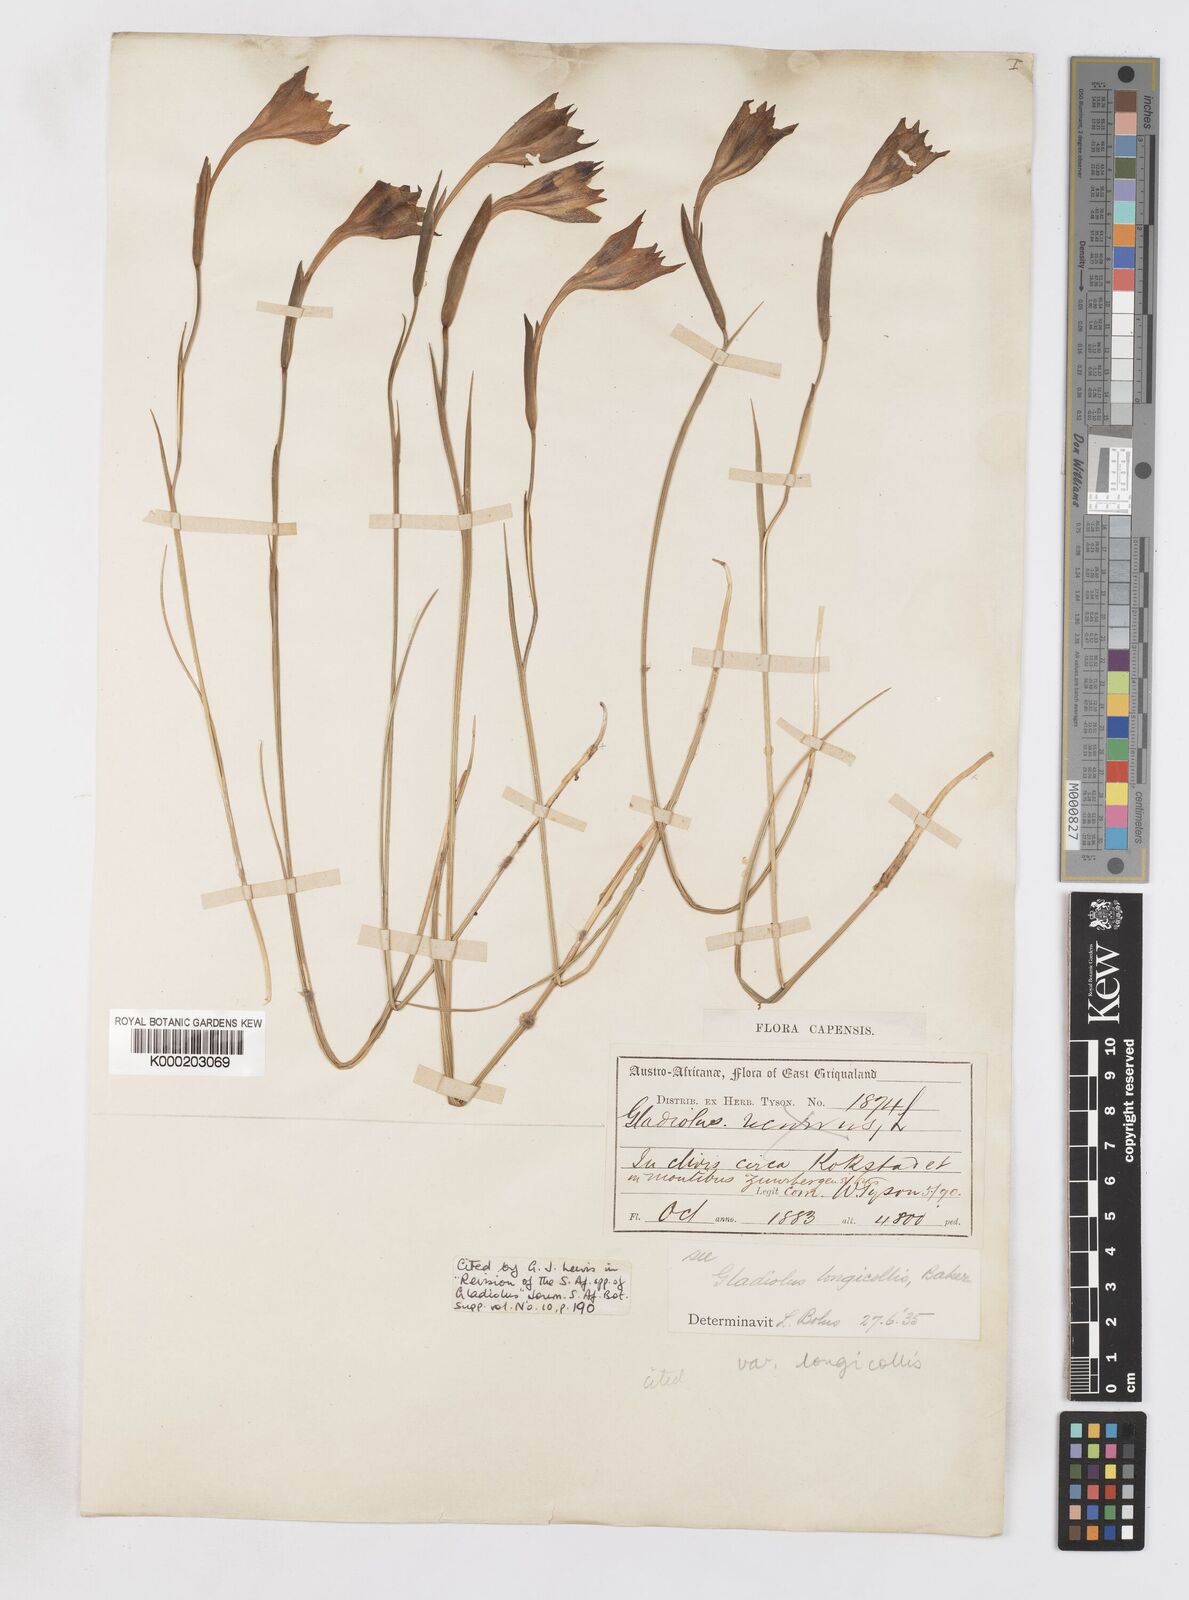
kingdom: Plantae
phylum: Tracheophyta
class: Liliopsida
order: Asparagales
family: Iridaceae
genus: Gladiolus
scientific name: Gladiolus longicollis
